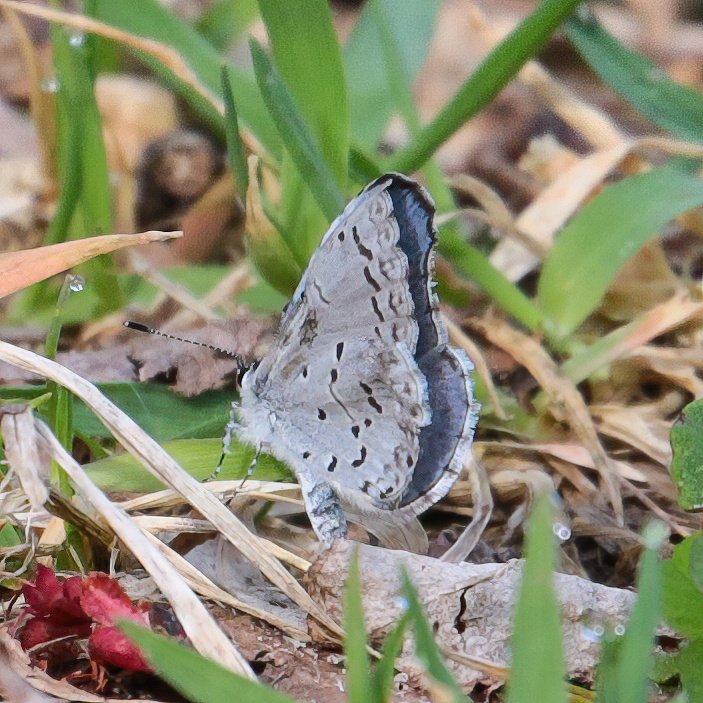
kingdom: Animalia
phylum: Arthropoda
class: Insecta
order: Lepidoptera
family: Lycaenidae
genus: Cyaniris
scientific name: Cyaniris neglecta
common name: Summer Azure
